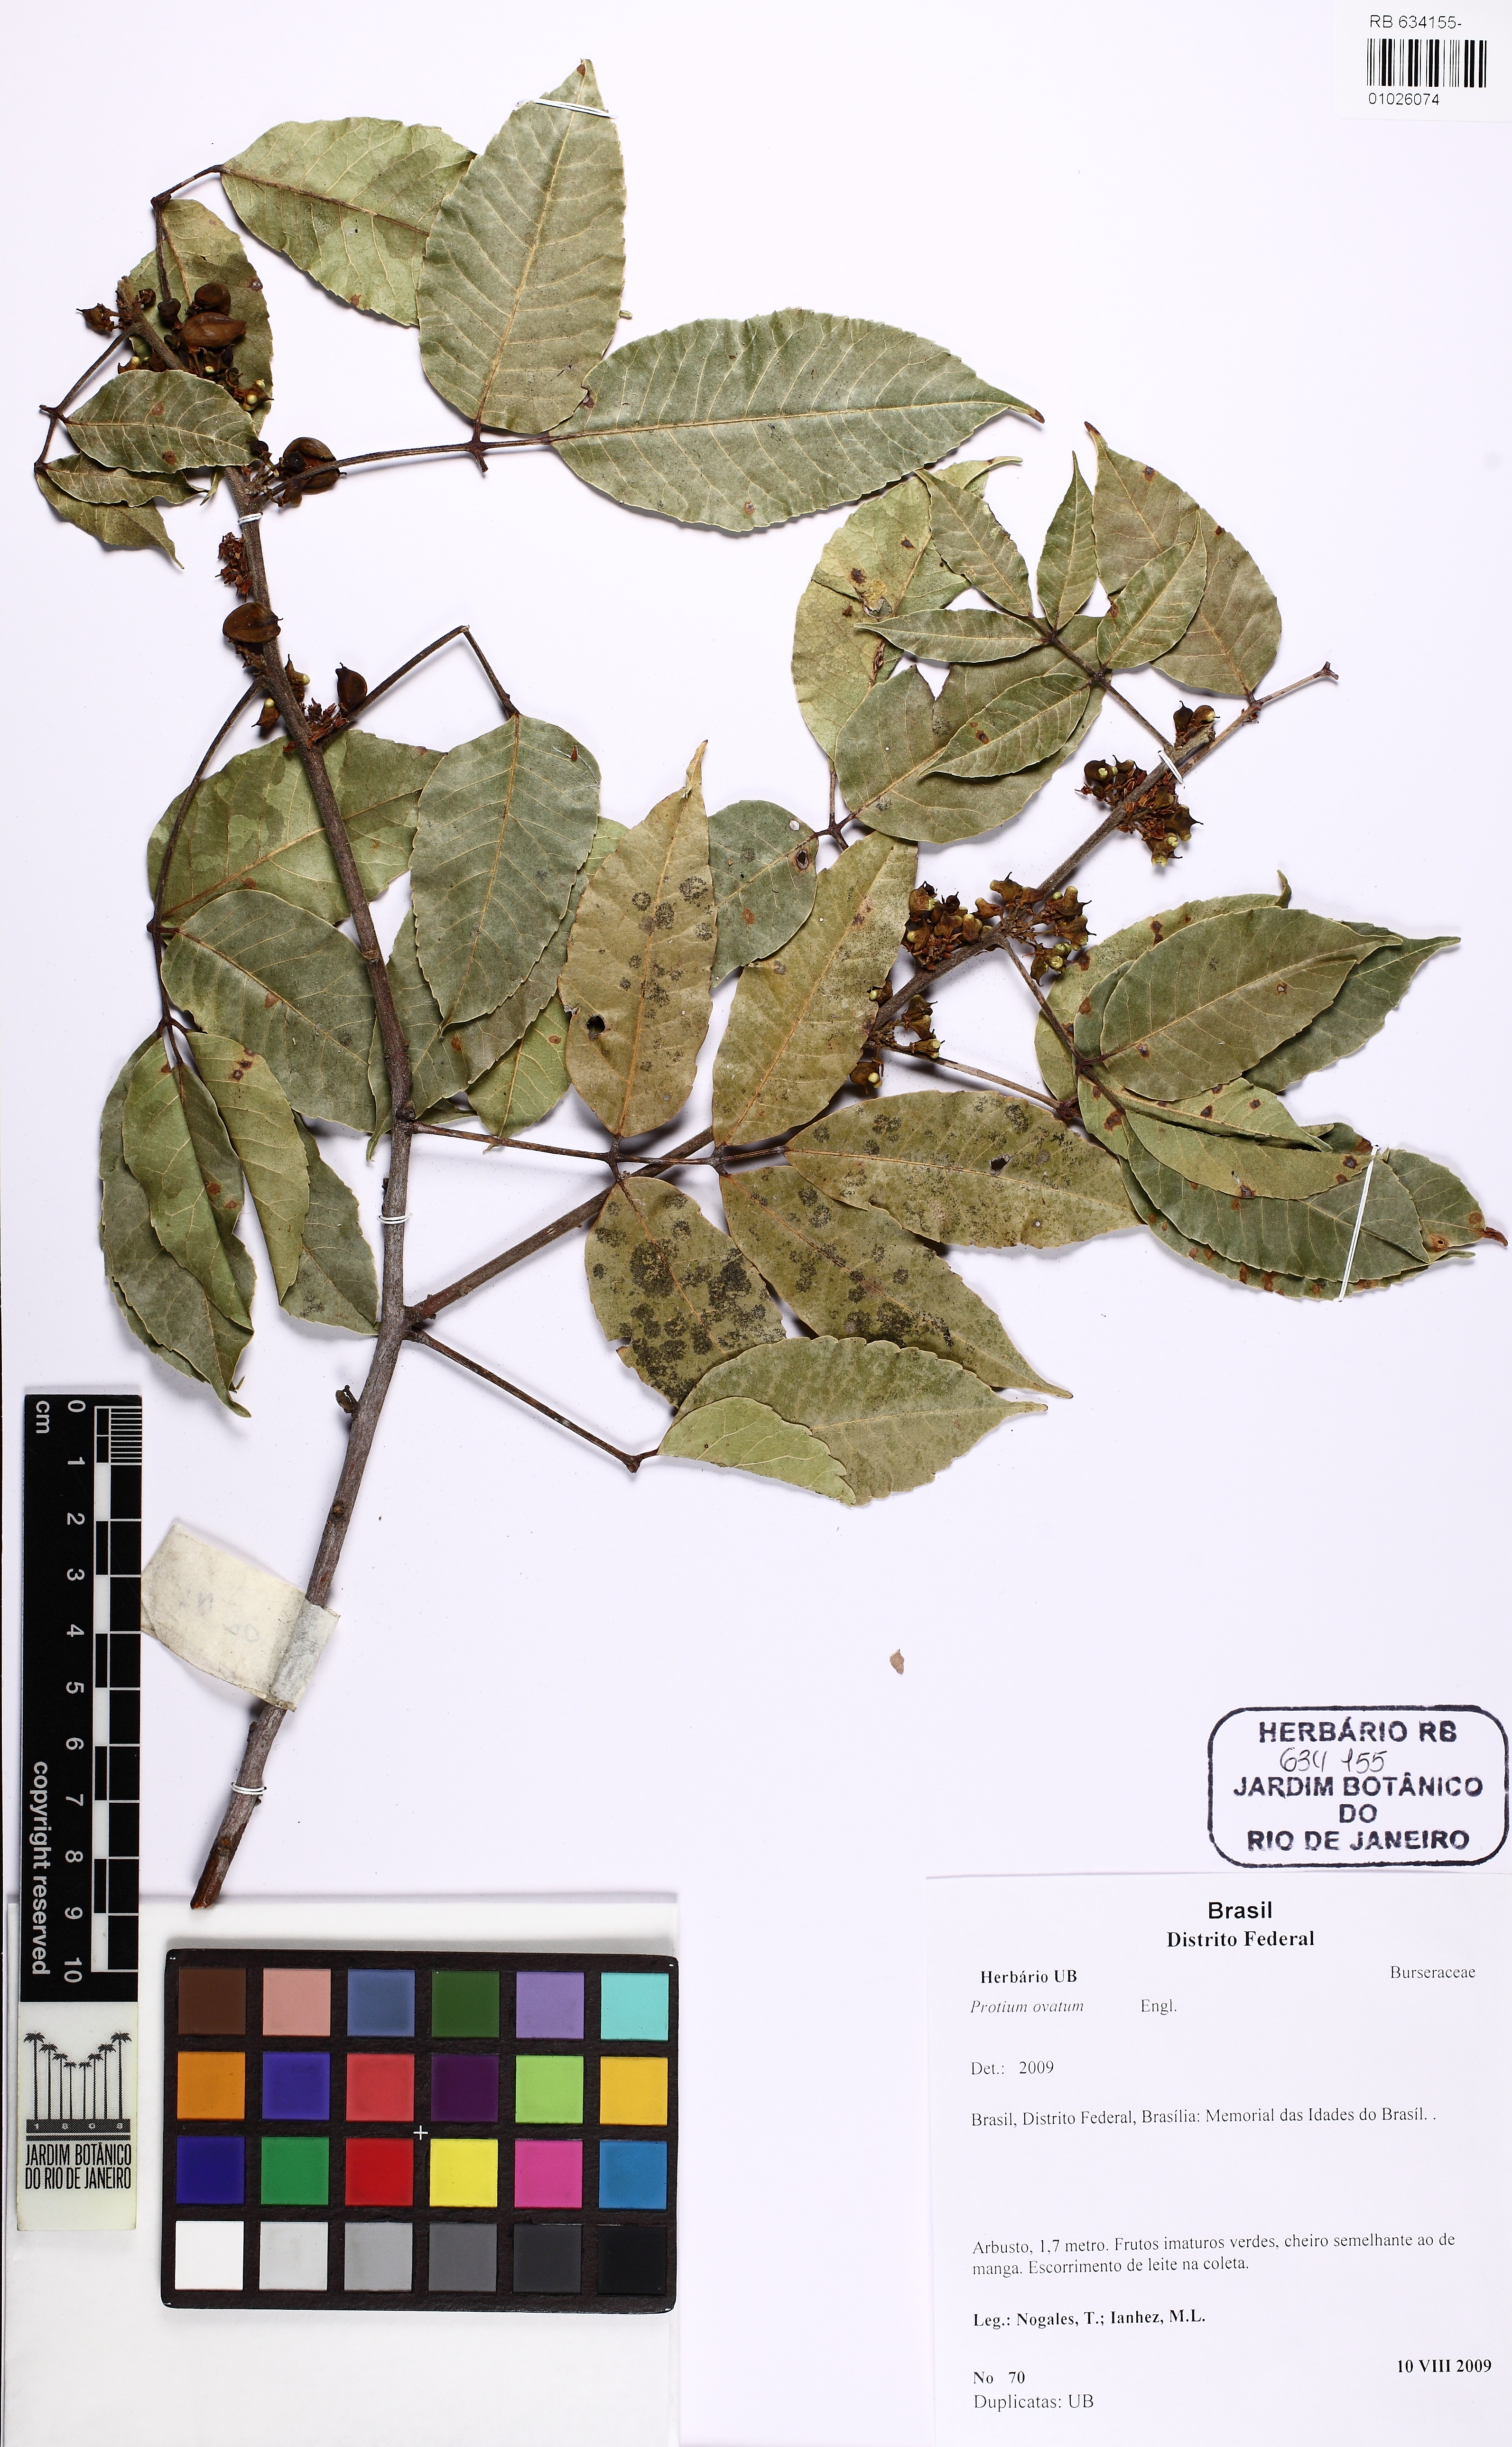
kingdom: Plantae
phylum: Tracheophyta
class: Magnoliopsida
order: Sapindales
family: Burseraceae
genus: Protium
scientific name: Protium ovatum
